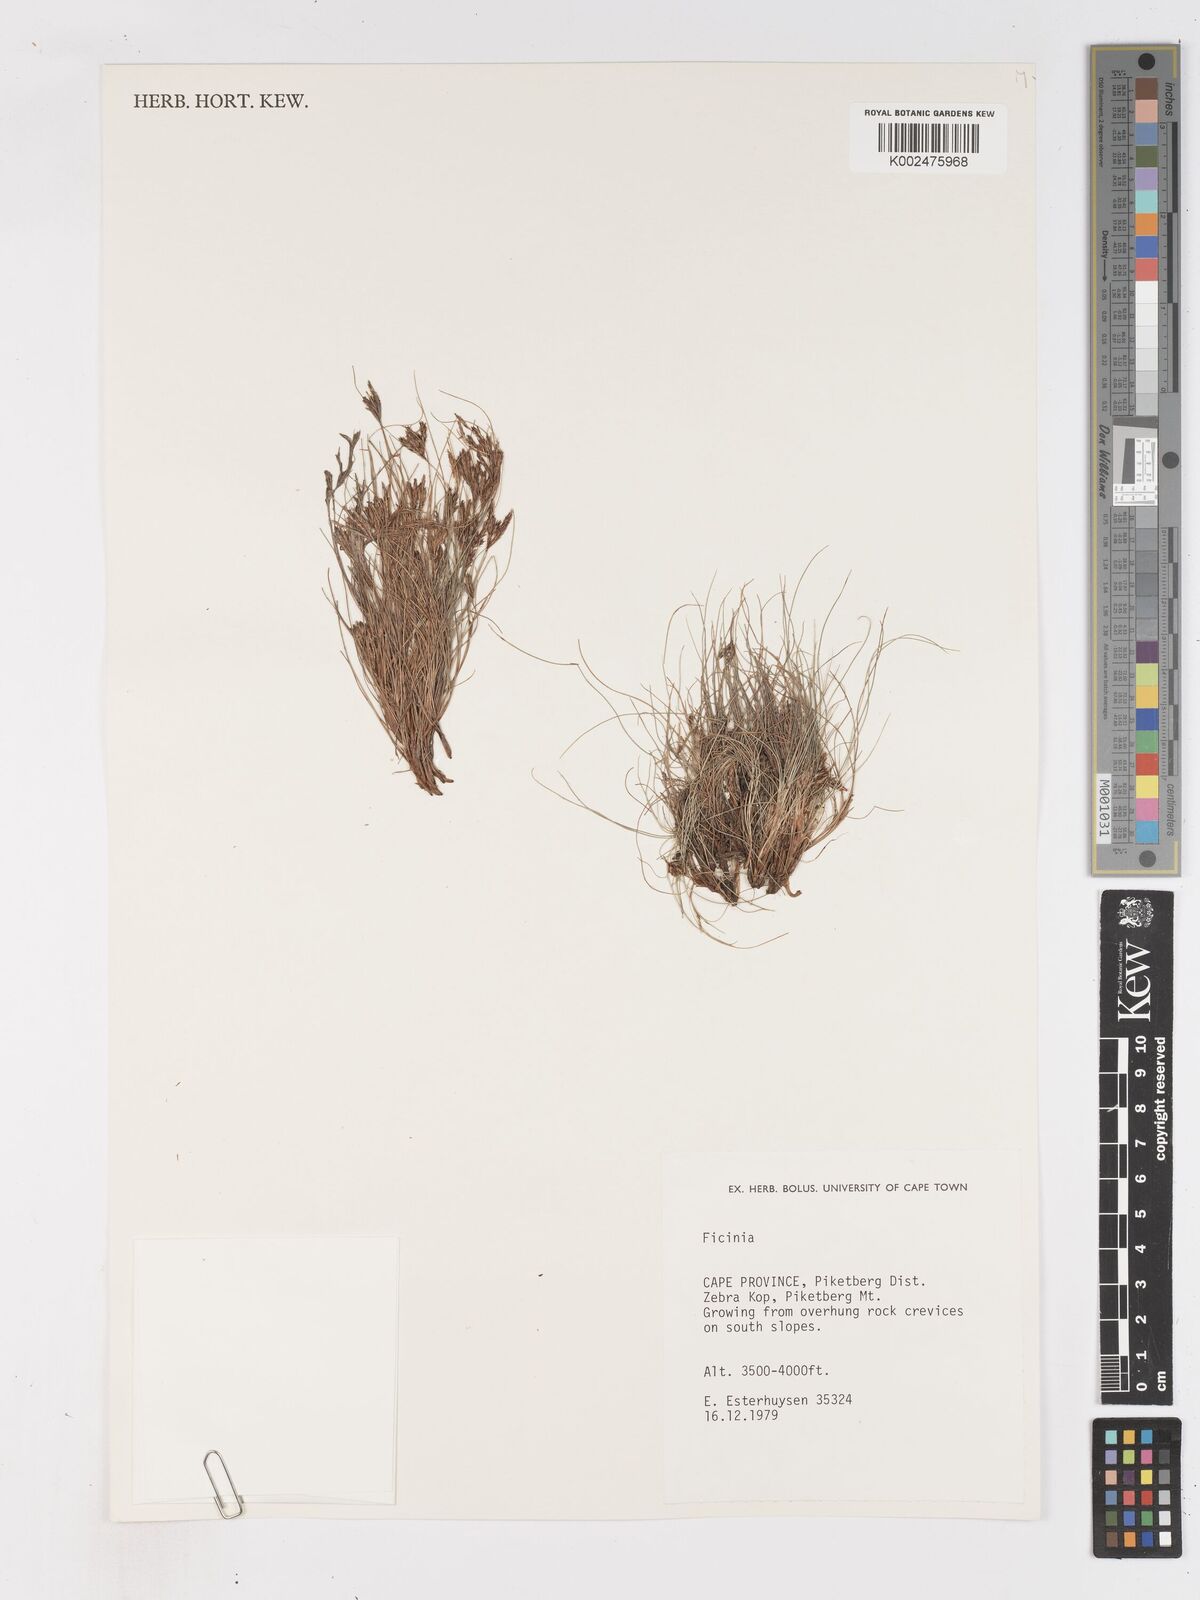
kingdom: Plantae
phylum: Tracheophyta
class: Liliopsida
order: Poales
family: Cyperaceae
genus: Ficinia
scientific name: Ficinia esterhuyseniae
